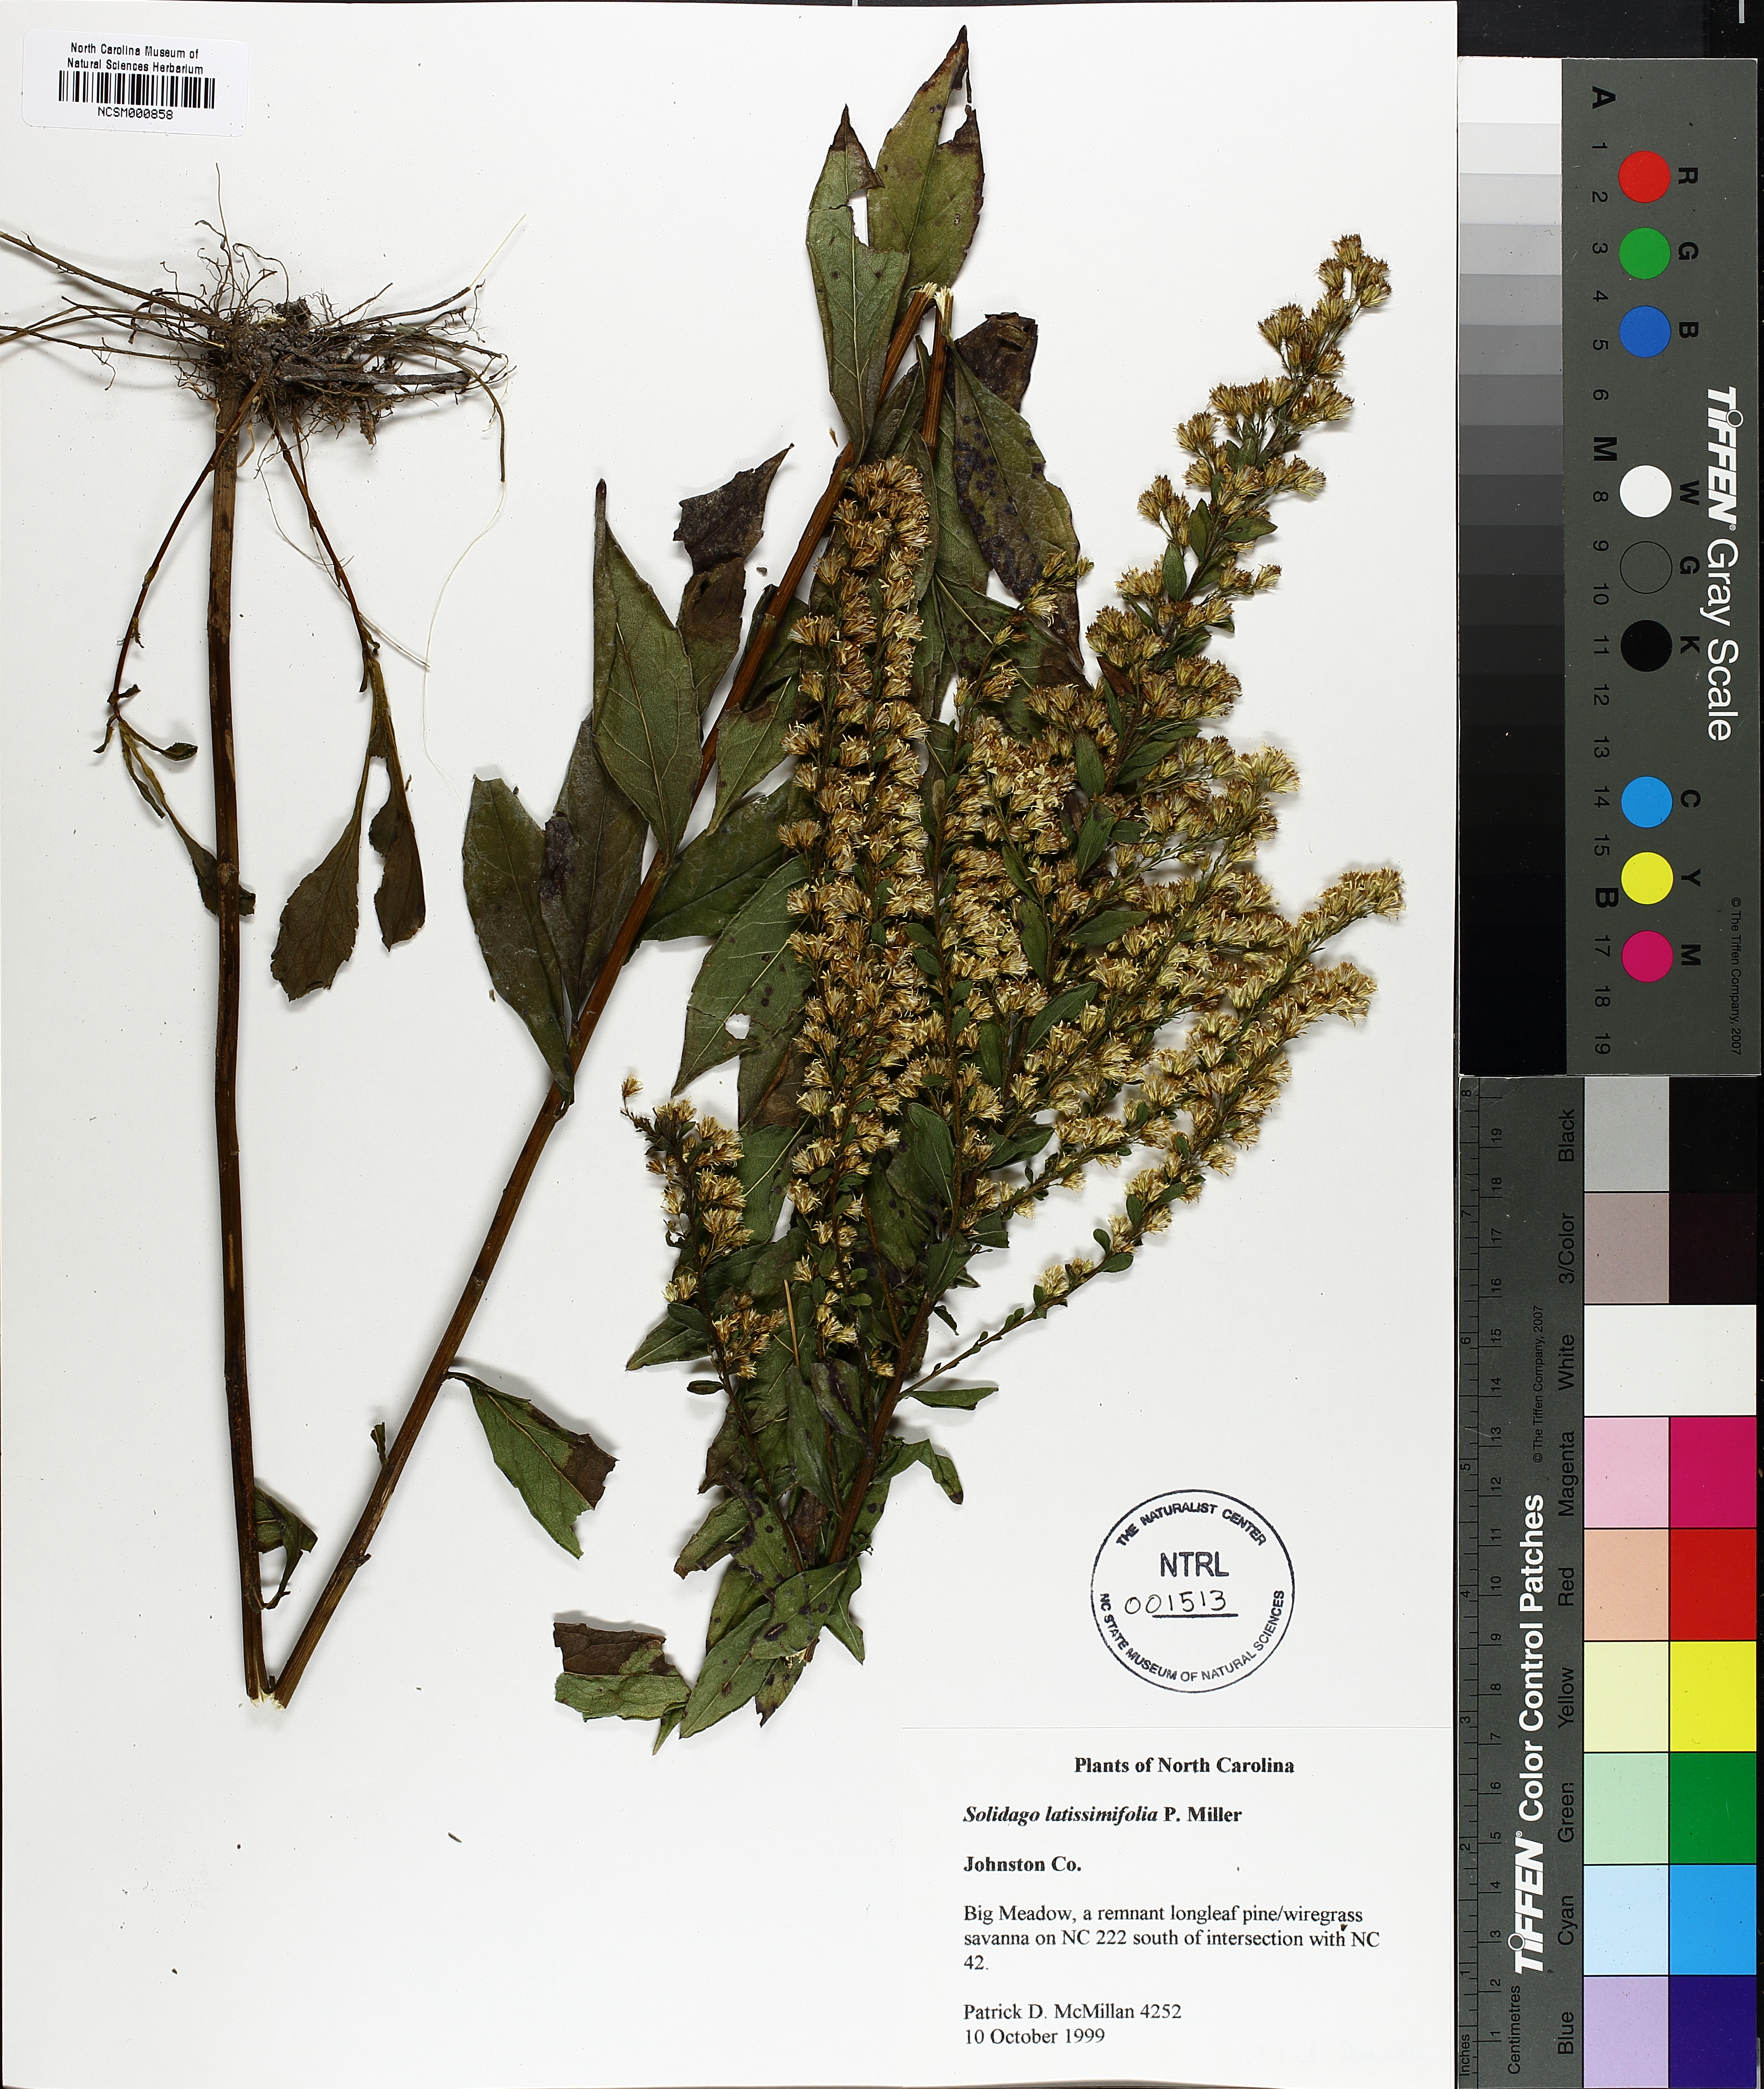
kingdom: Plantae
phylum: Tracheophyta
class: Magnoliopsida
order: Asterales
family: Asteraceae
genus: Solidago
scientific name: Solidago latissimifolia
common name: Elliott's goldenrod
